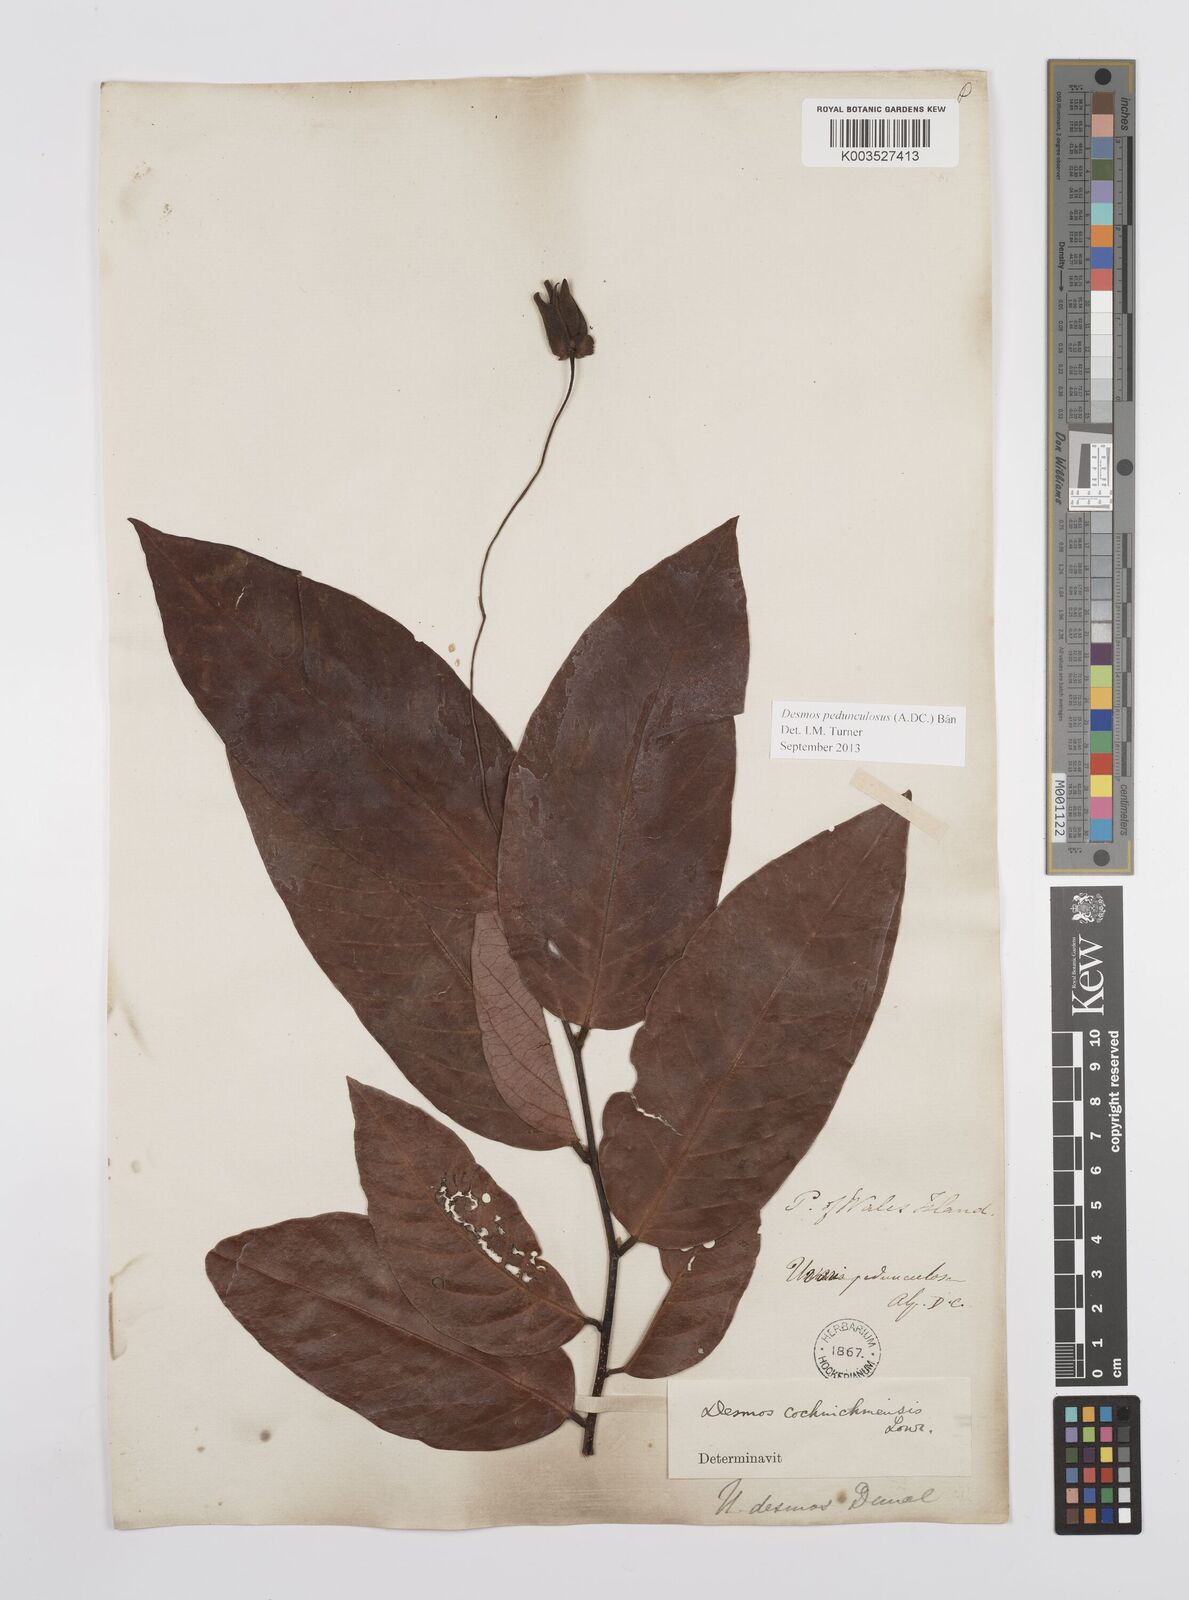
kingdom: Plantae
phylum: Tracheophyta
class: Magnoliopsida
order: Magnoliales
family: Annonaceae
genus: Desmos
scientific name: Desmos cochinchinensis
